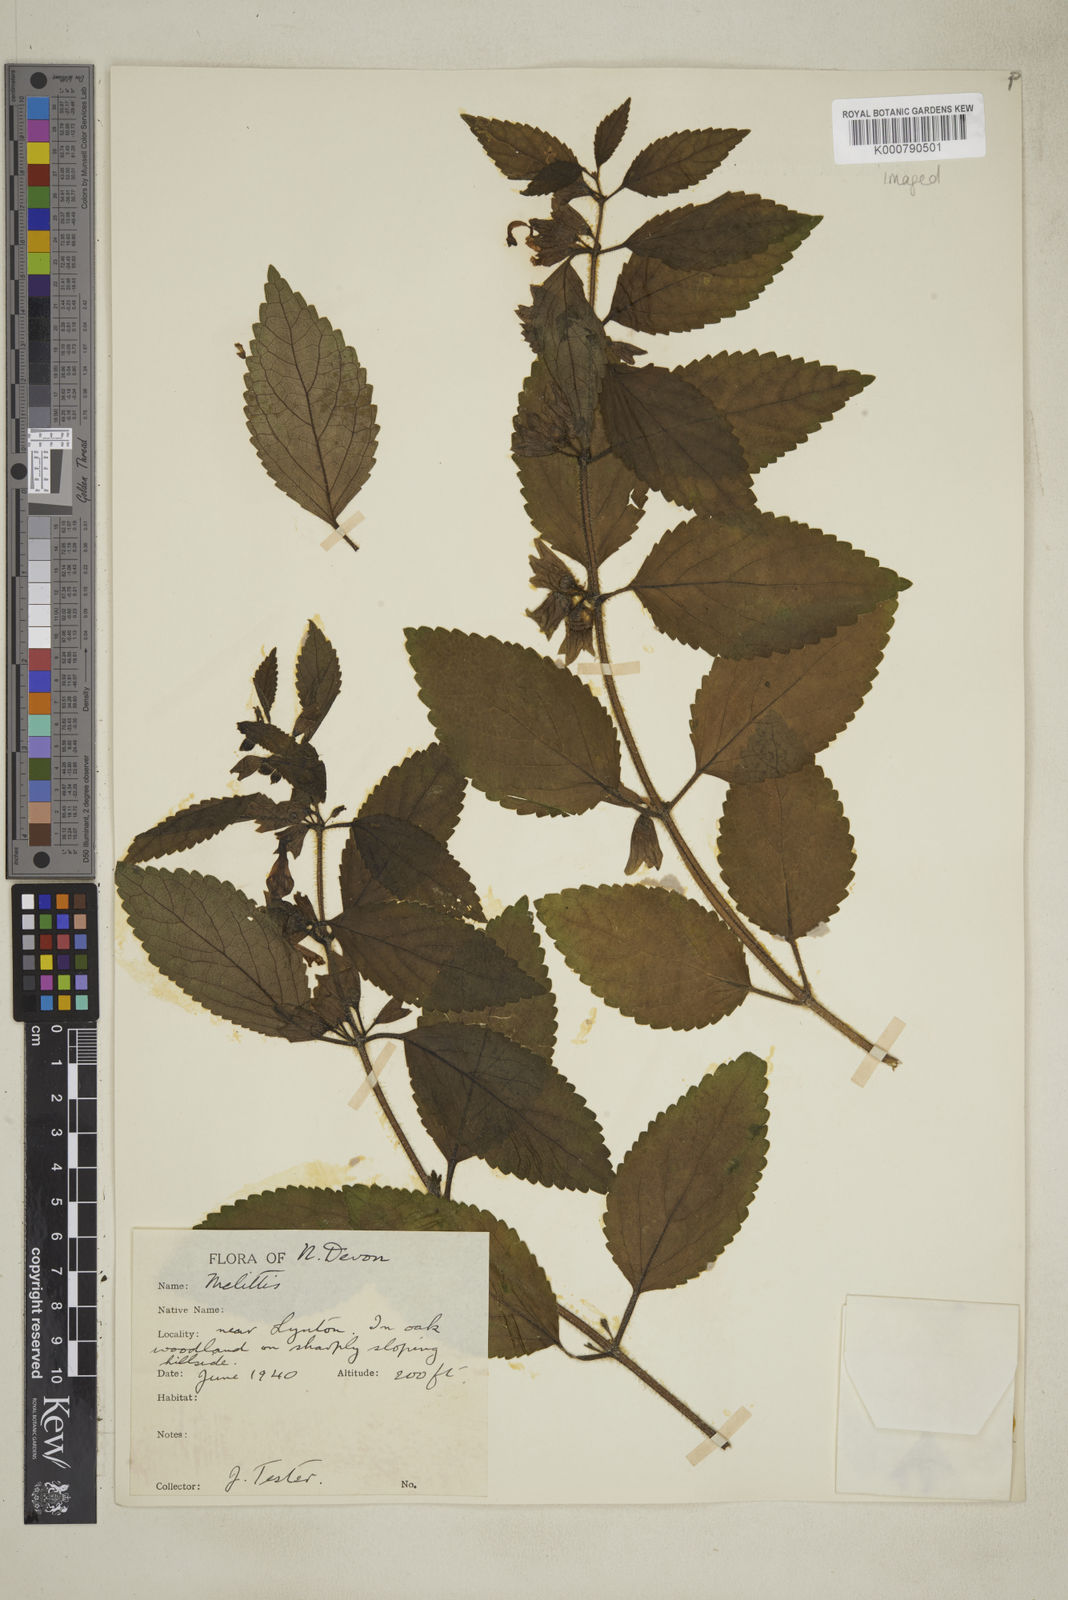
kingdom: Plantae
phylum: Tracheophyta
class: Magnoliopsida
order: Lamiales
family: Lamiaceae
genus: Melittis
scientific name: Melittis melissophyllum
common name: Bastard balm
